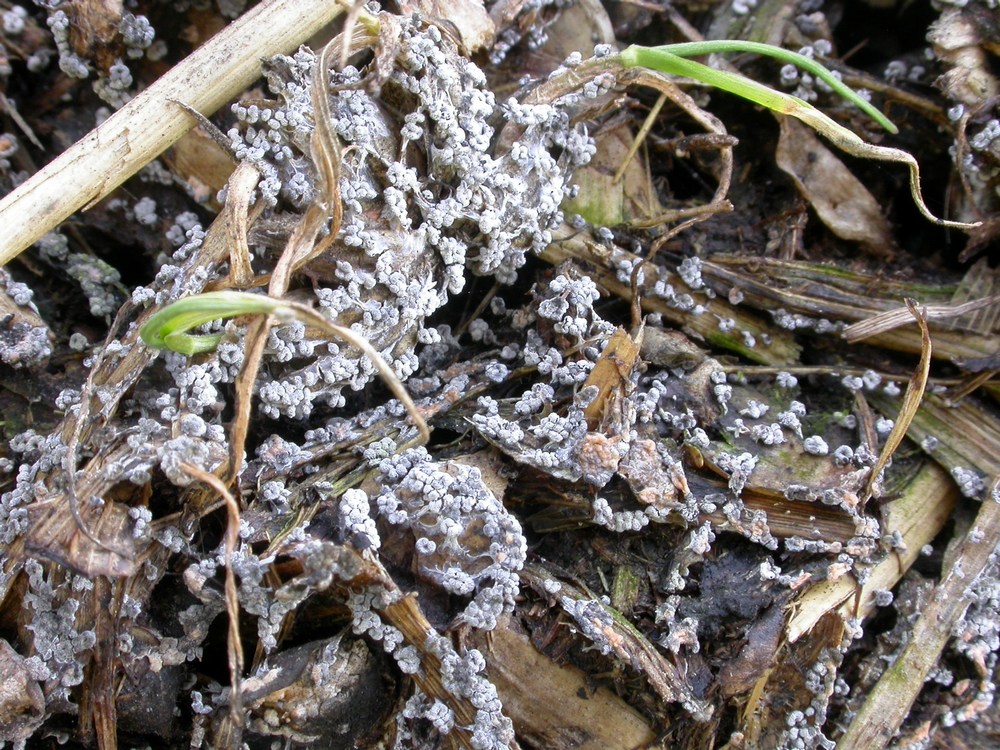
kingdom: Protozoa
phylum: Mycetozoa
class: Myxomycetes
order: Physarales
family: Physaraceae
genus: Physarum
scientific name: Physarum compressum
